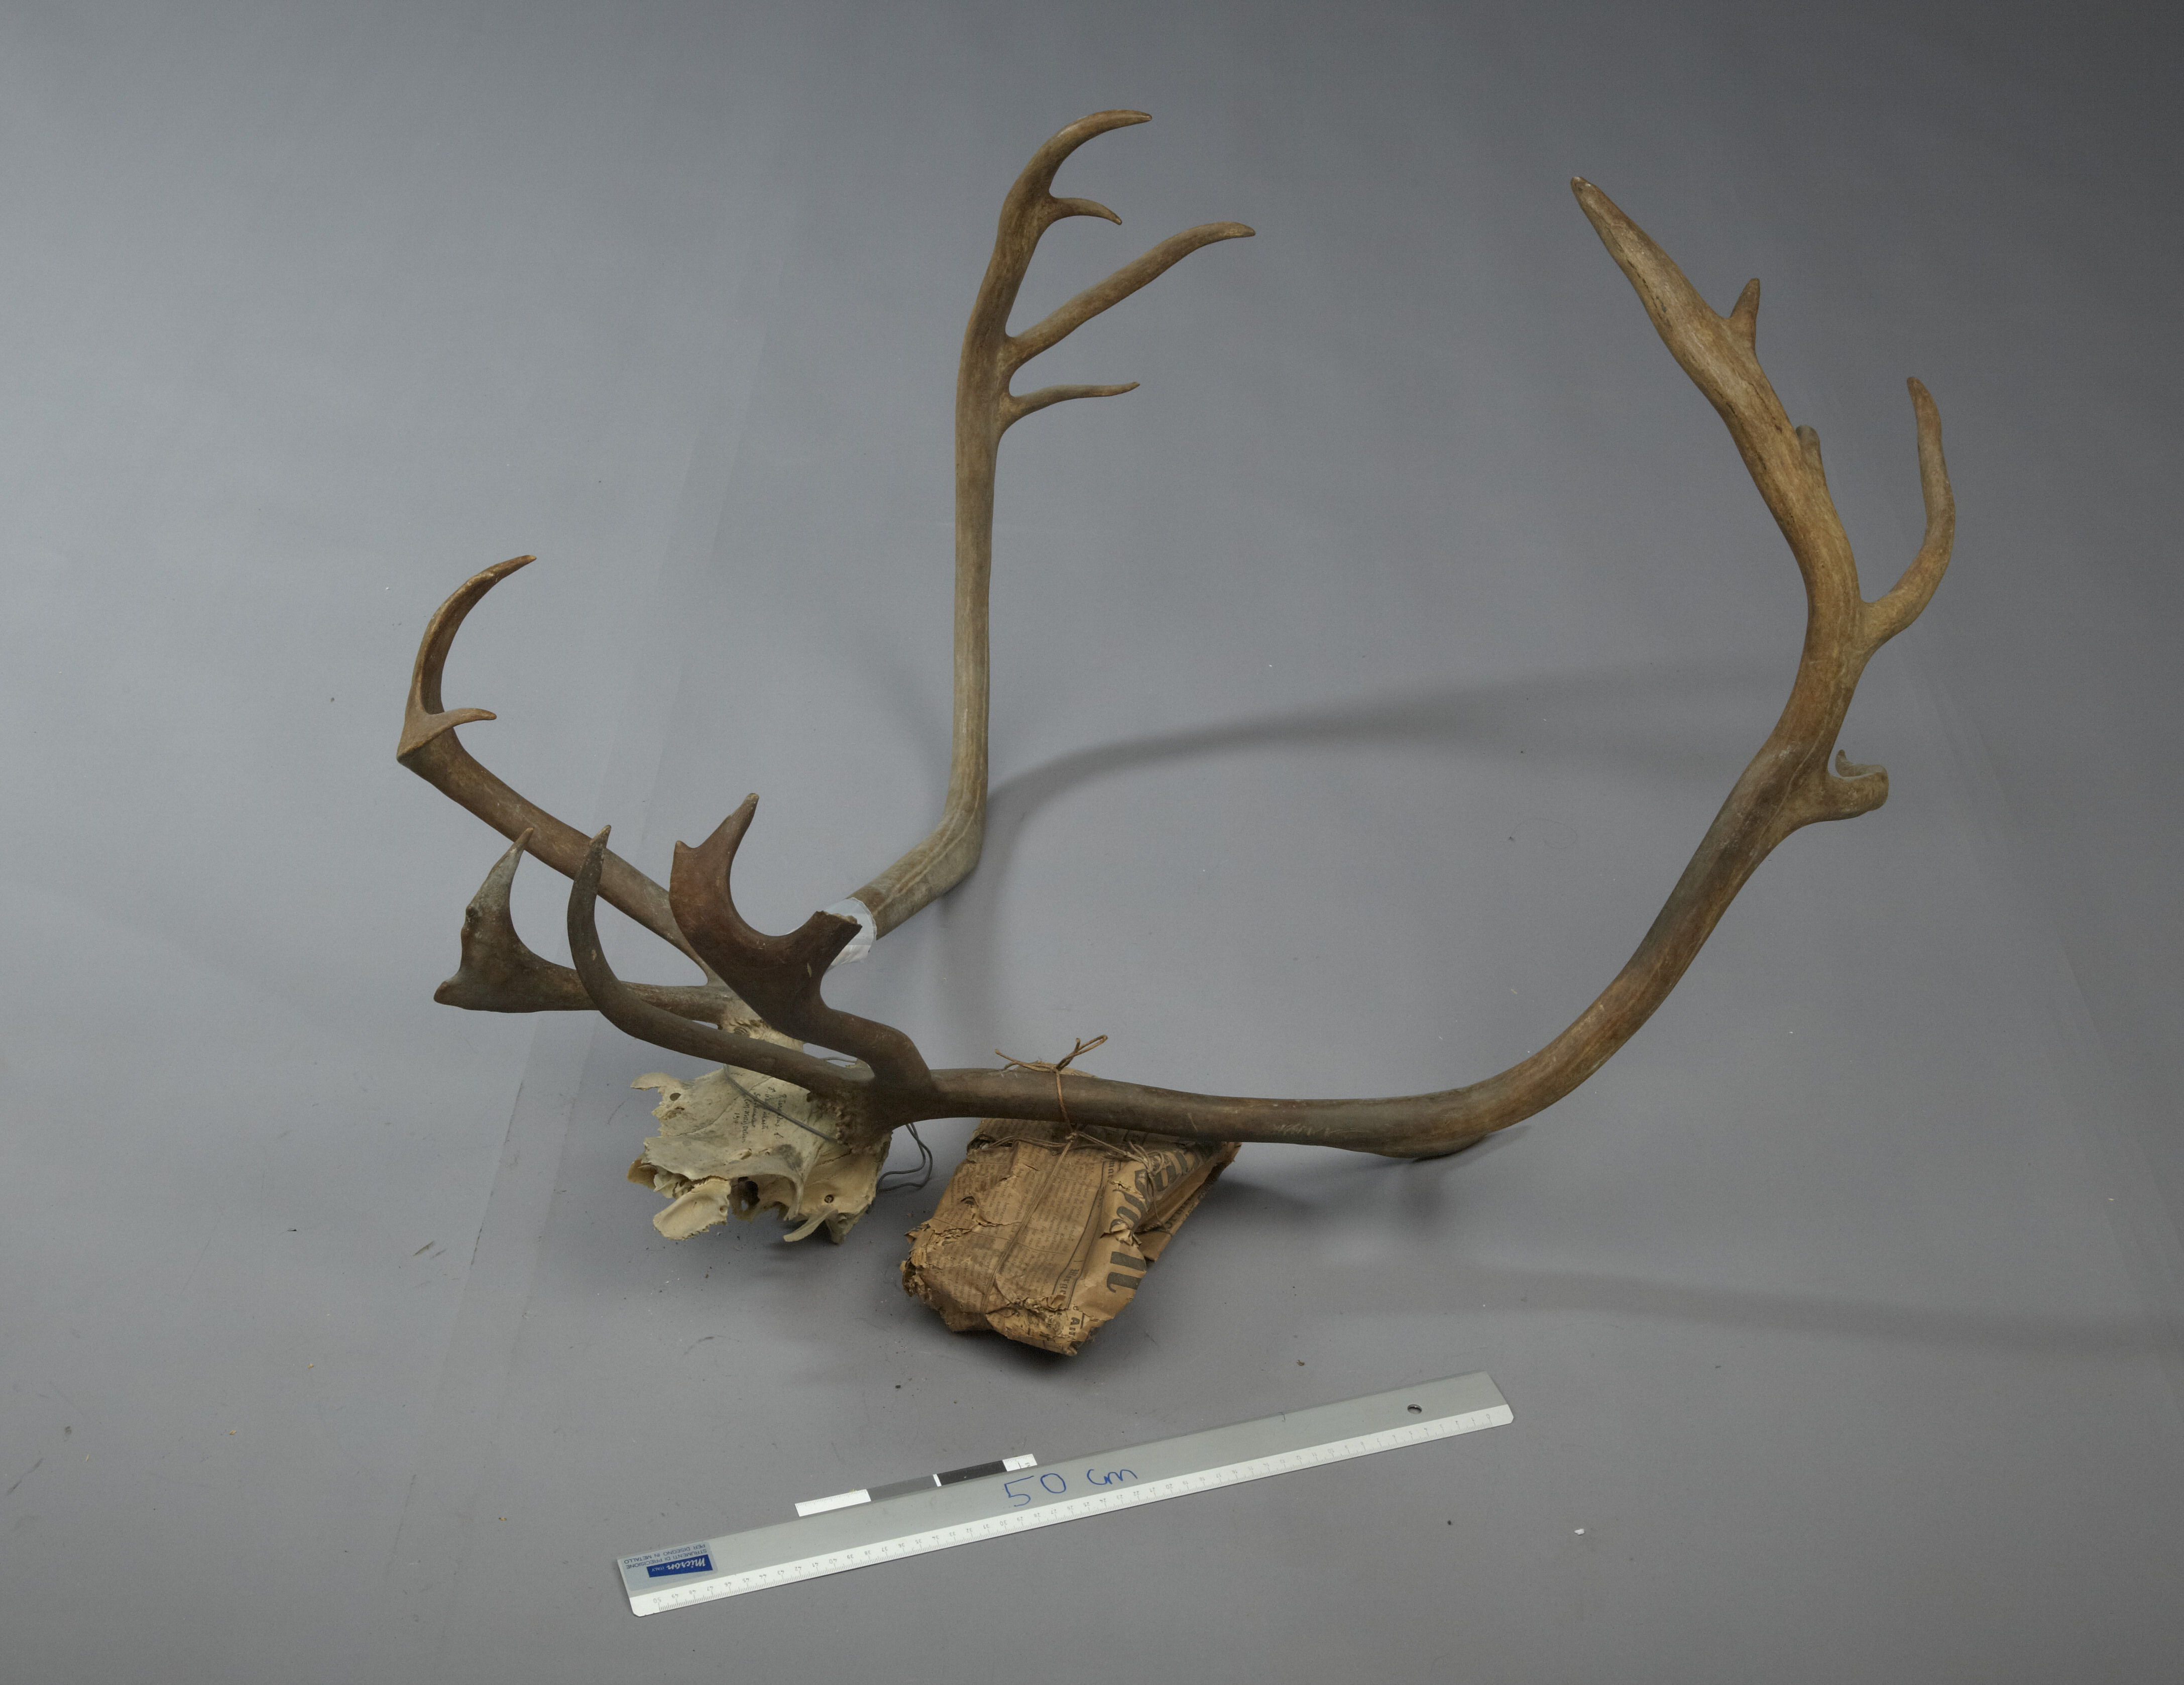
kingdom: Animalia
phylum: Chordata
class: Mammalia
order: Artiodactyla
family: Cervidae
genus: Rangifer
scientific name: Rangifer tarandus
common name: Reindeer
